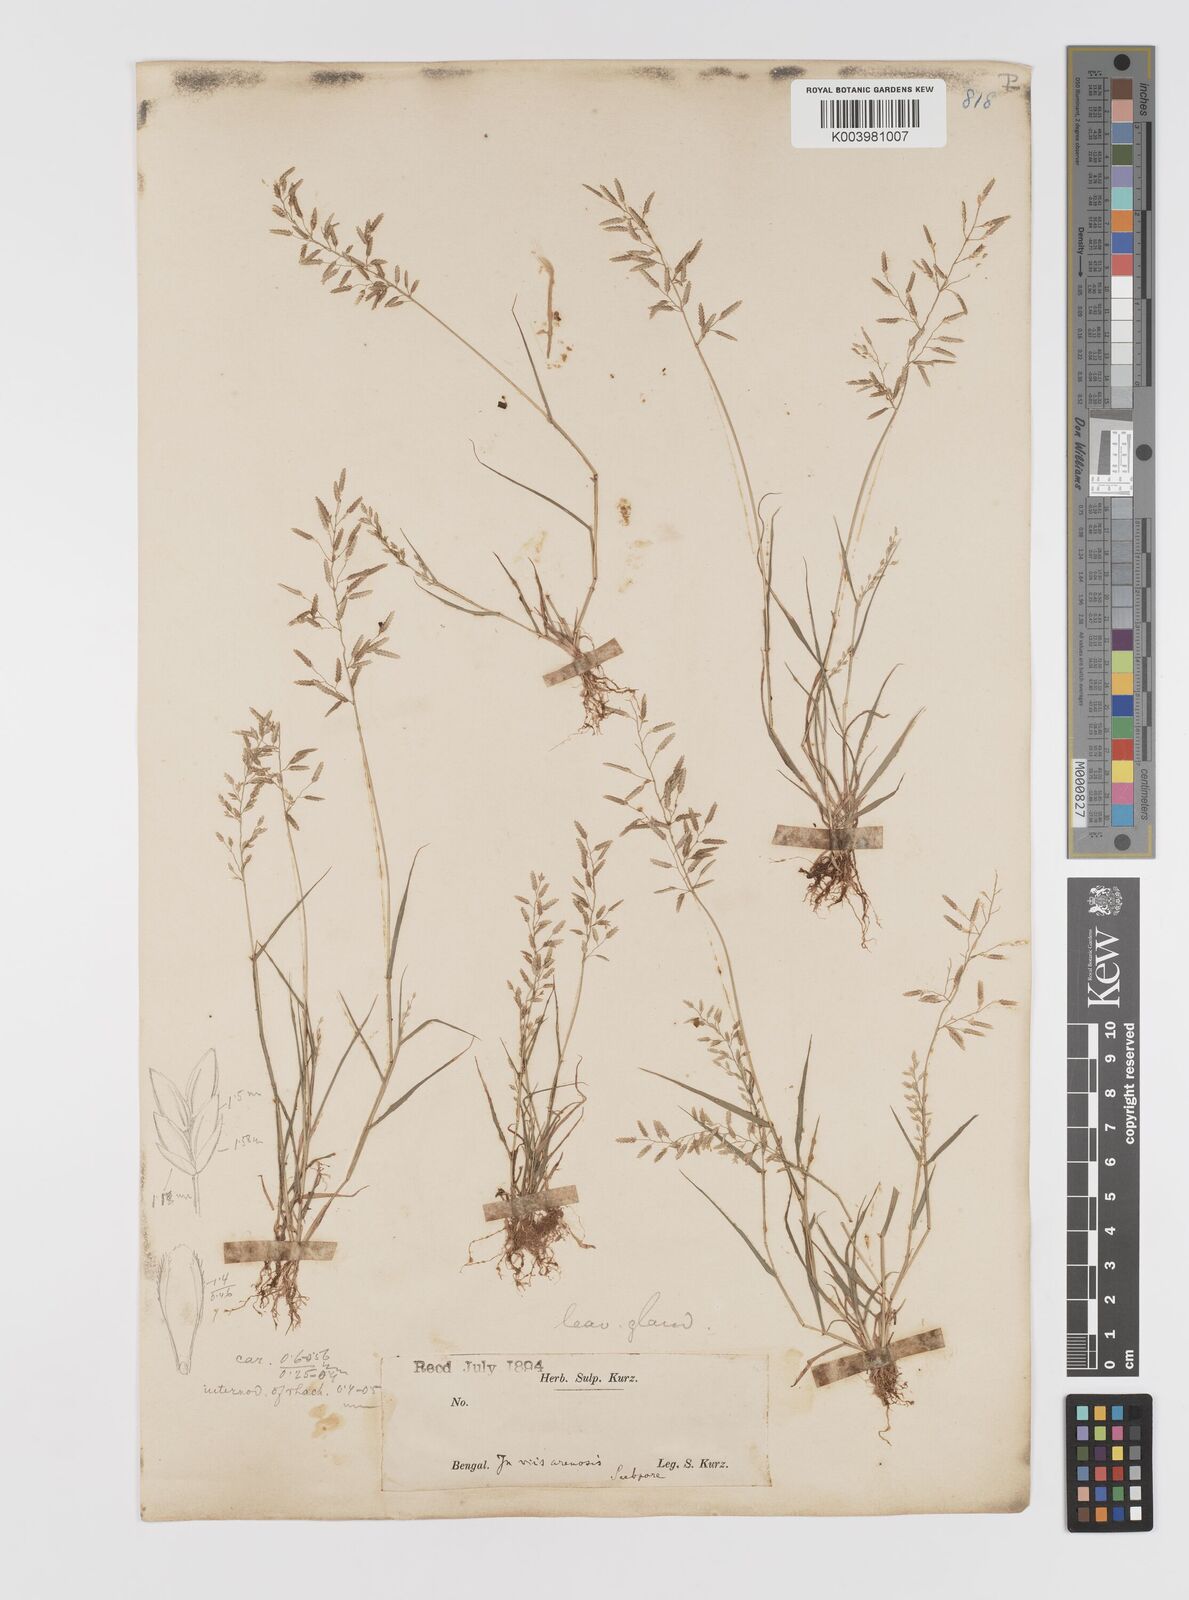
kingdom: Plantae
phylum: Tracheophyta
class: Liliopsida
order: Poales
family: Poaceae
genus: Eragrostis
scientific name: Eragrostis minor
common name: Small love-grass
